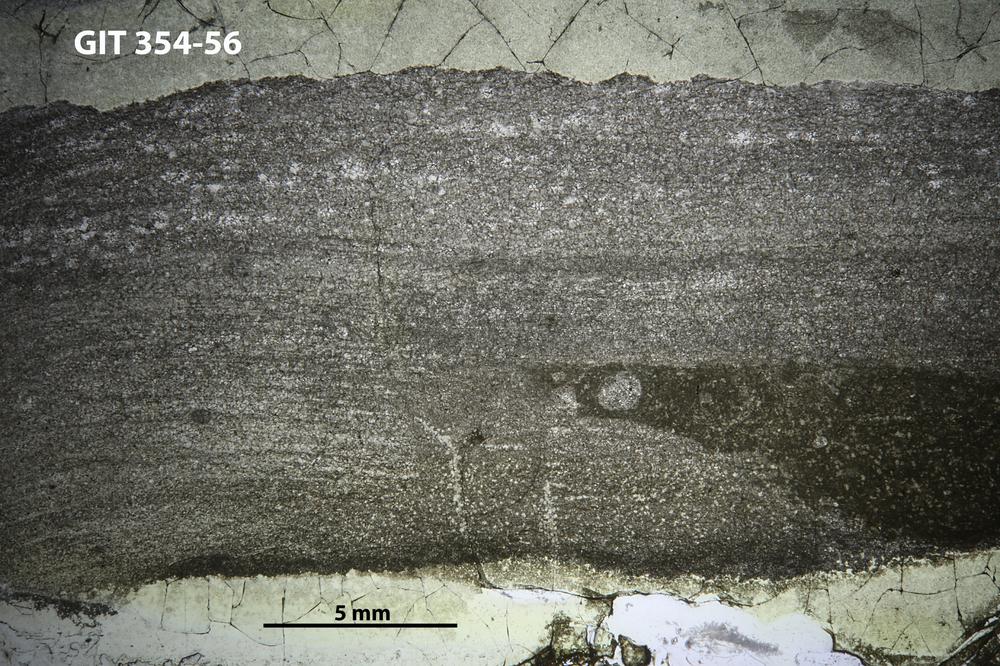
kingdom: Animalia
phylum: Porifera
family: Rosenellidae
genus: Cystostroma
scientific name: Cystostroma estoniense
